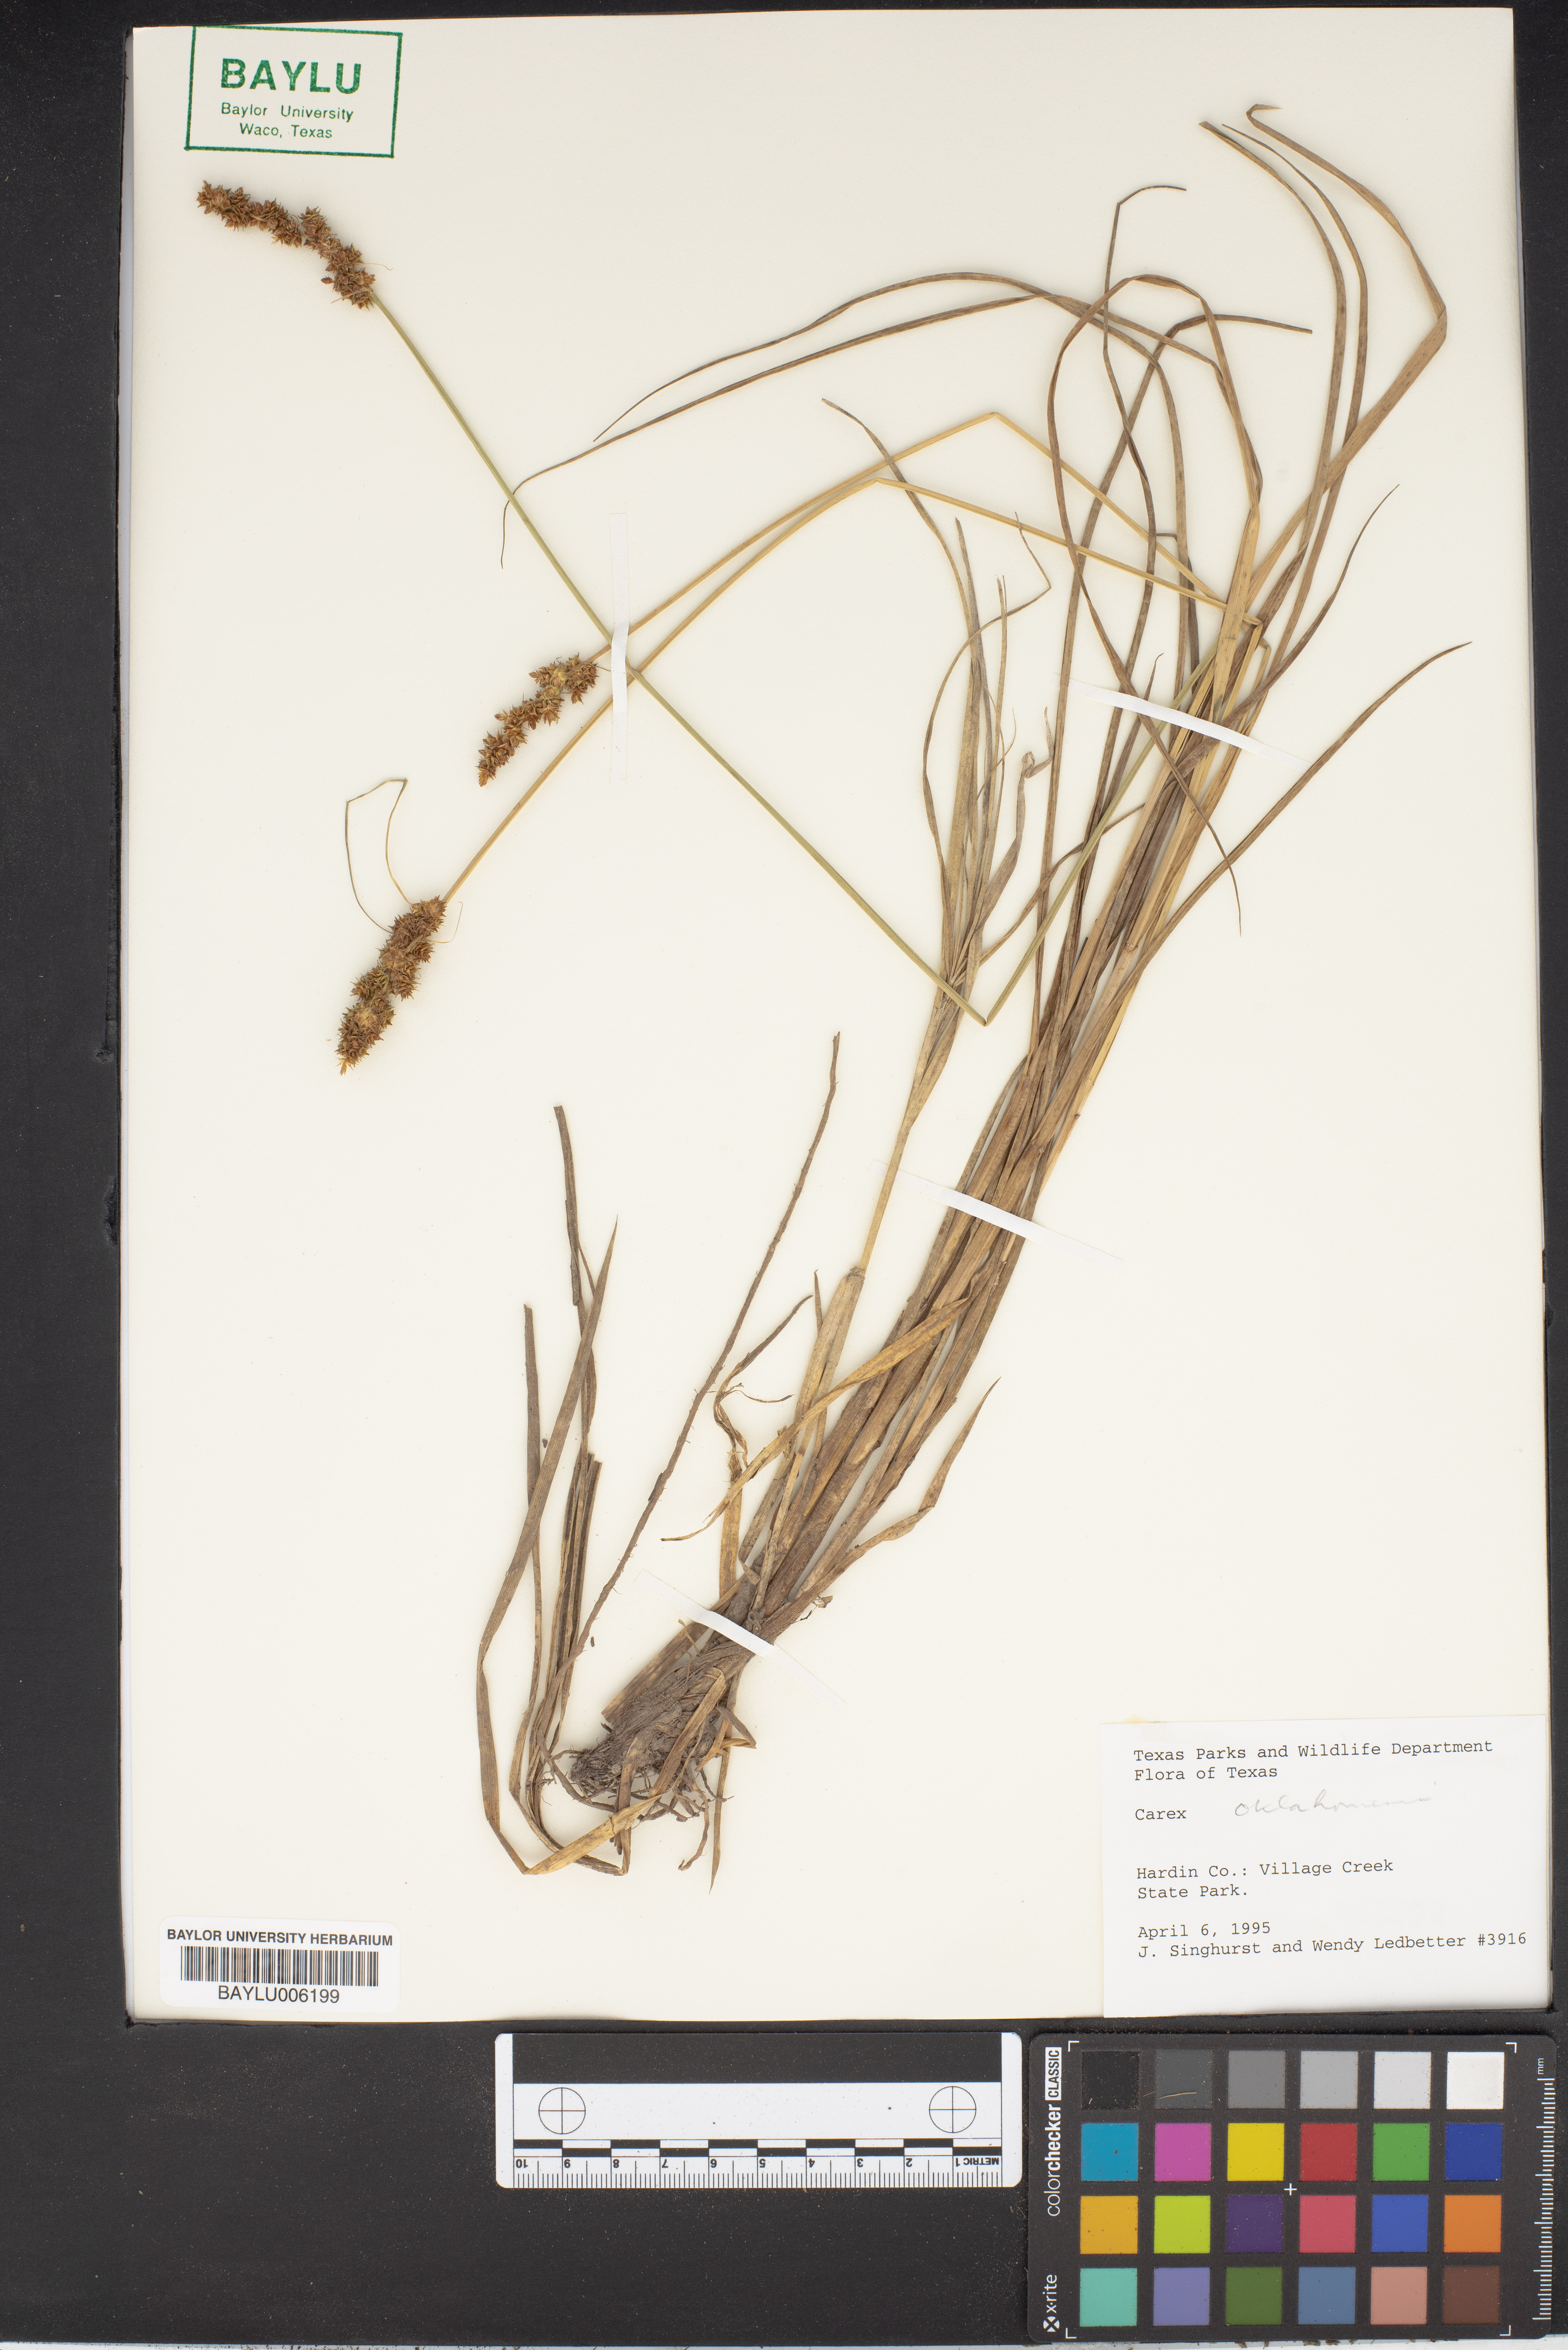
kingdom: Plantae
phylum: Tracheophyta
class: Liliopsida
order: Poales
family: Cyperaceae
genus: Carex
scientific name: Carex
